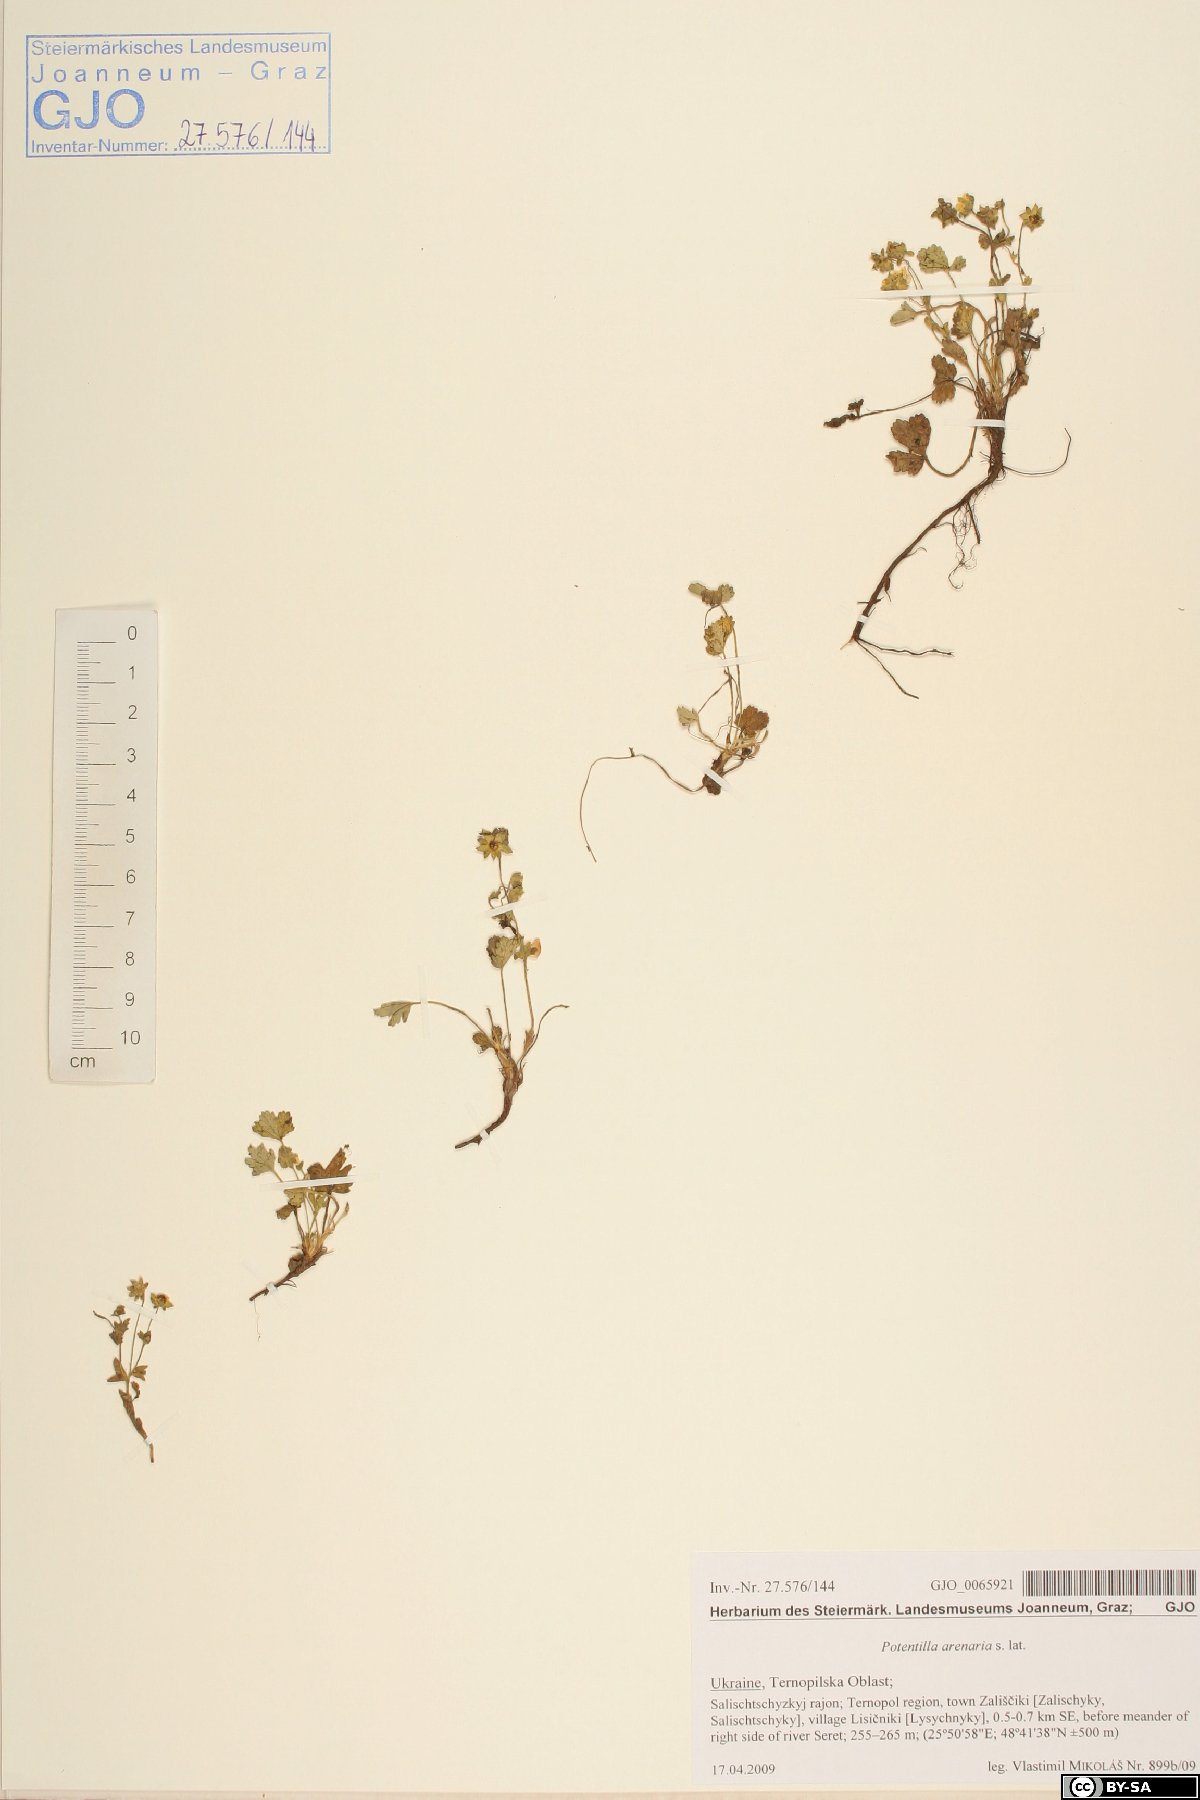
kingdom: Plantae
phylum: Tracheophyta
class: Magnoliopsida
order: Rosales
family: Rosaceae
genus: Potentilla
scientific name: Potentilla cinerea
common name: Ashy cinquefoil
